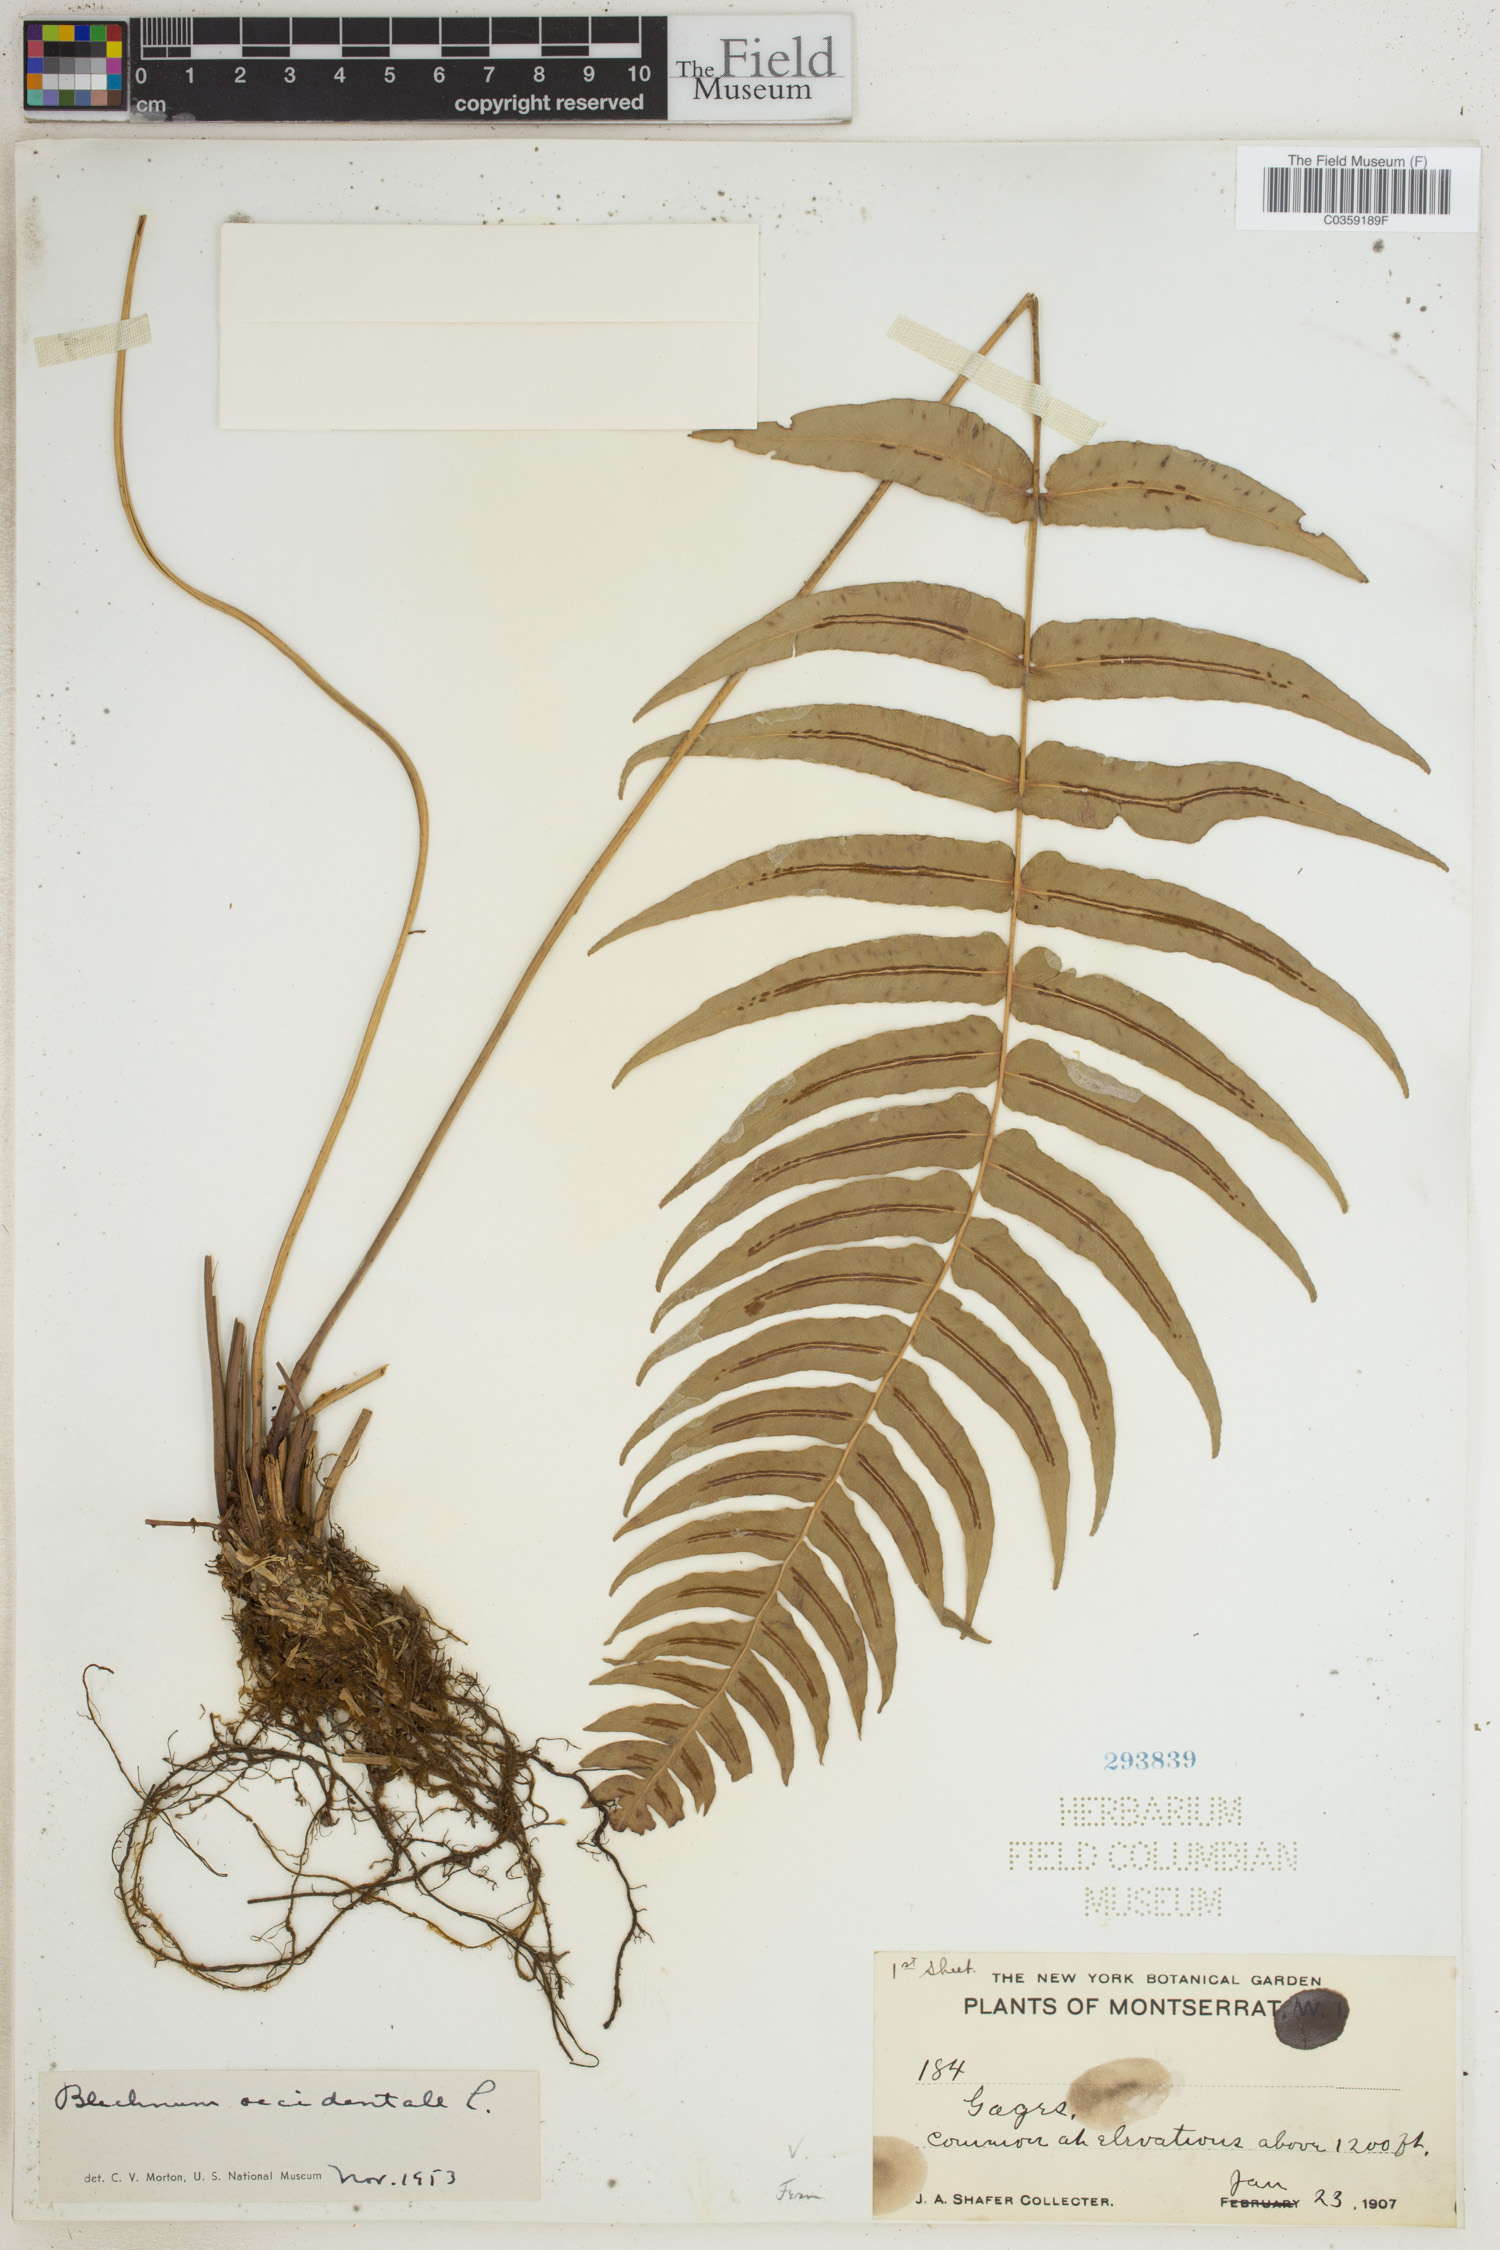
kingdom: Plantae
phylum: Tracheophyta
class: Polypodiopsida
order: Polypodiales
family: Blechnaceae
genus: Blechnum
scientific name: Blechnum occidentale
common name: Hammock fern
